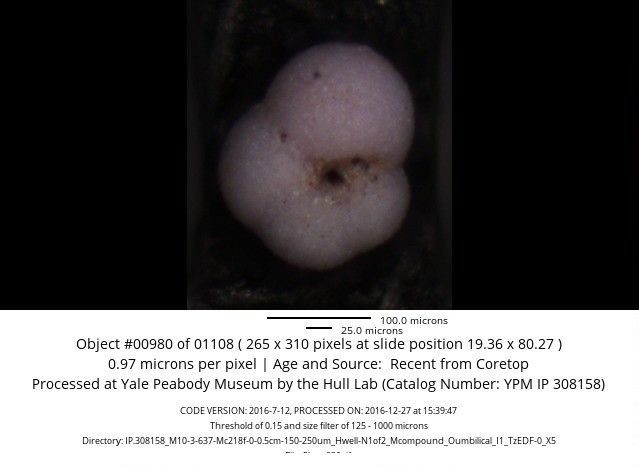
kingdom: Chromista
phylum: Foraminifera
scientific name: Foraminifera
